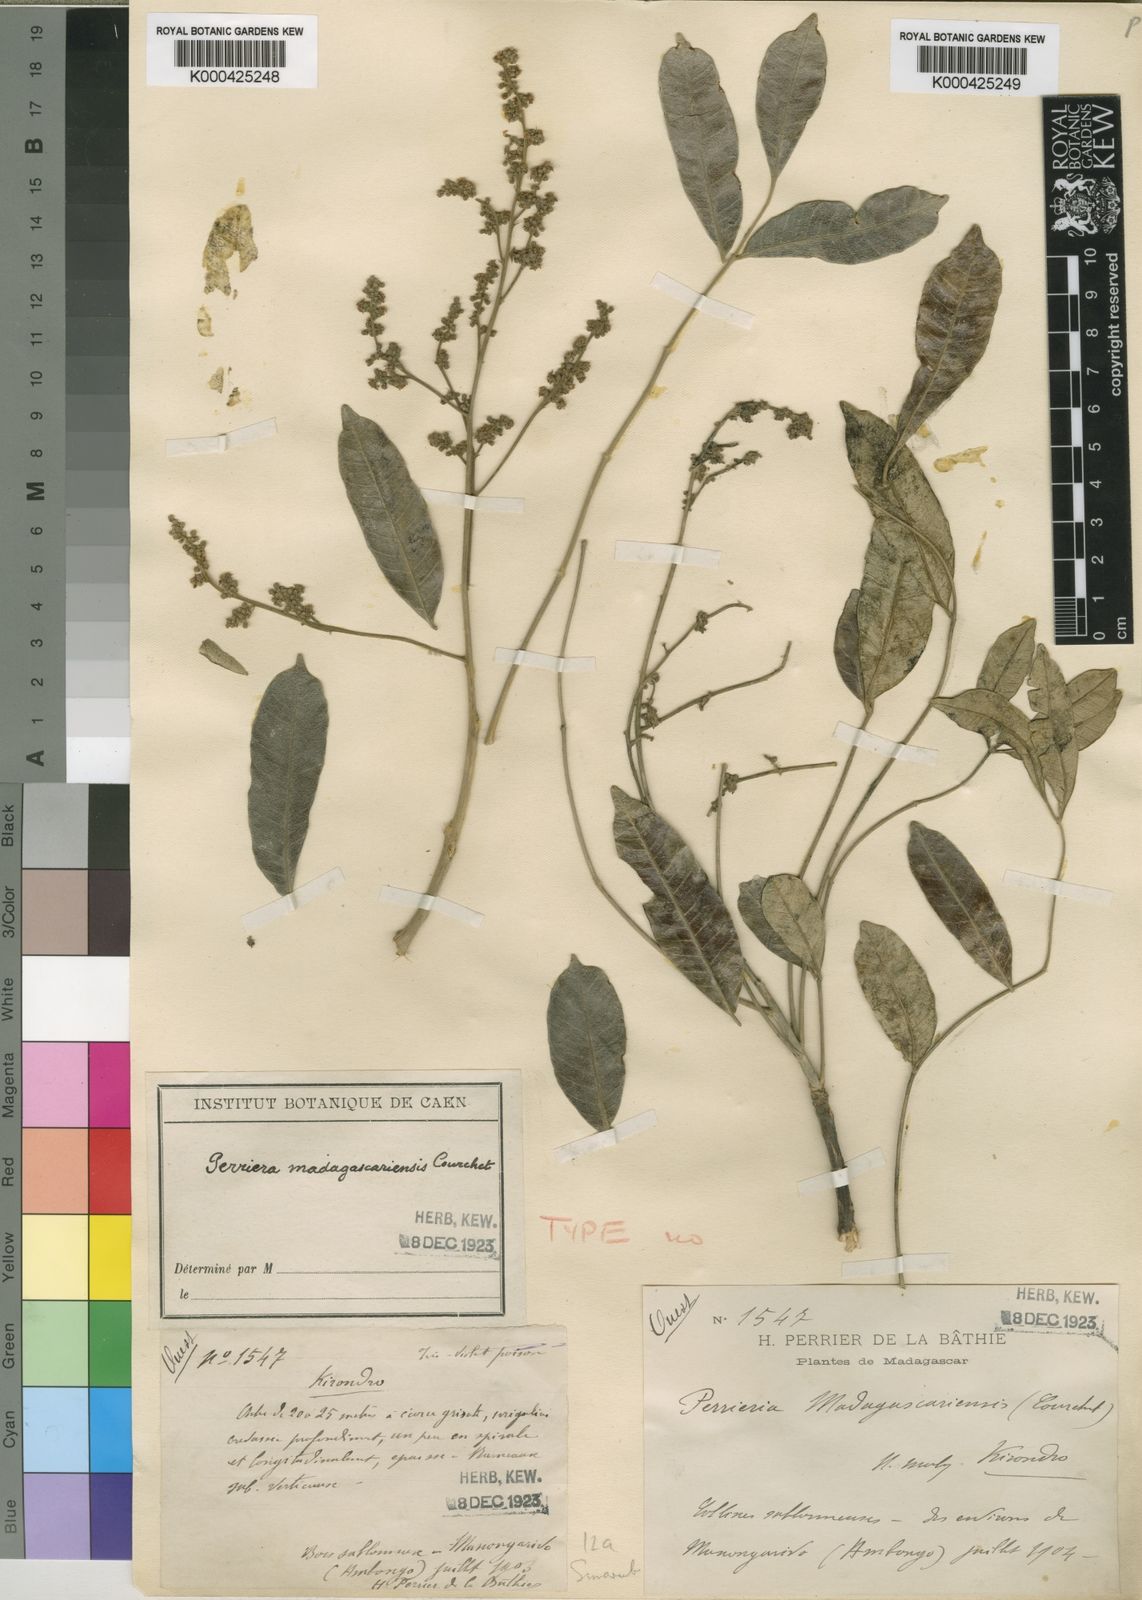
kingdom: Plantae
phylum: Tracheophyta
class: Magnoliopsida
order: Sapindales
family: Simaroubaceae
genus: Perriera
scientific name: Perriera madagascariensis
